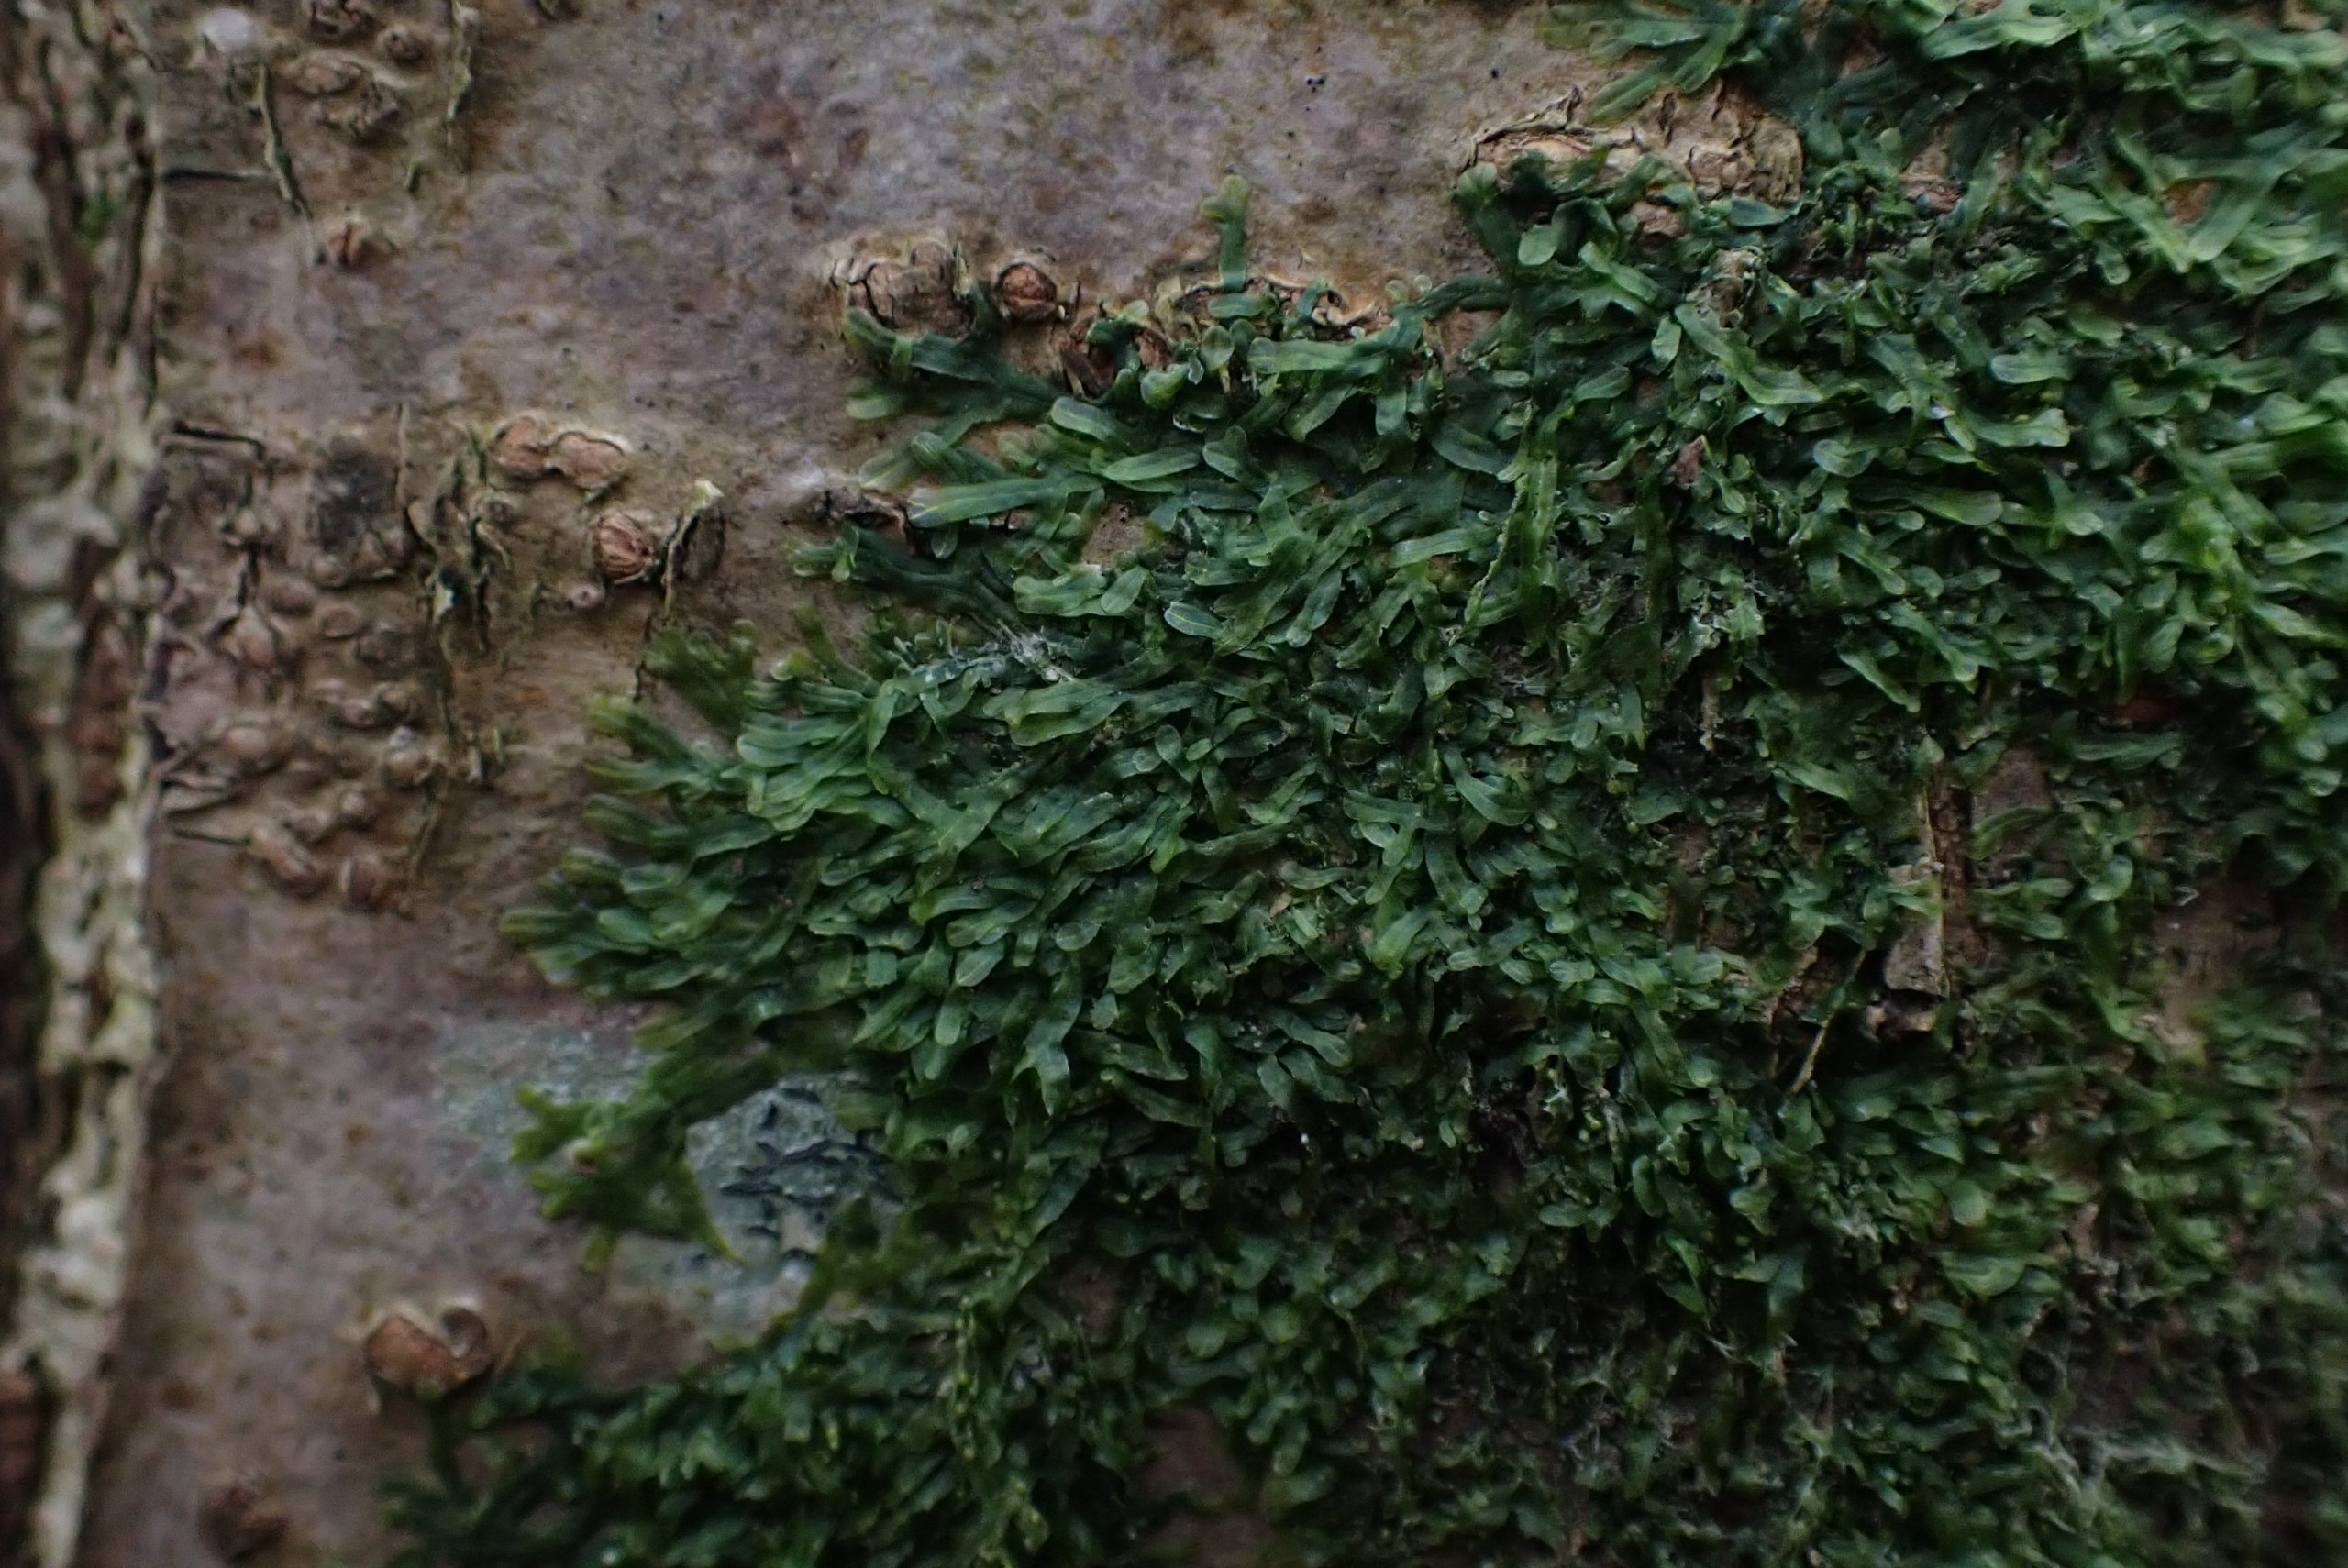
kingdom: Plantae
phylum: Marchantiophyta
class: Jungermanniopsida
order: Metzgeriales
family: Metzgeriaceae
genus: Metzgeria
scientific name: Metzgeria furcata
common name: Almindelig gaffelløv
